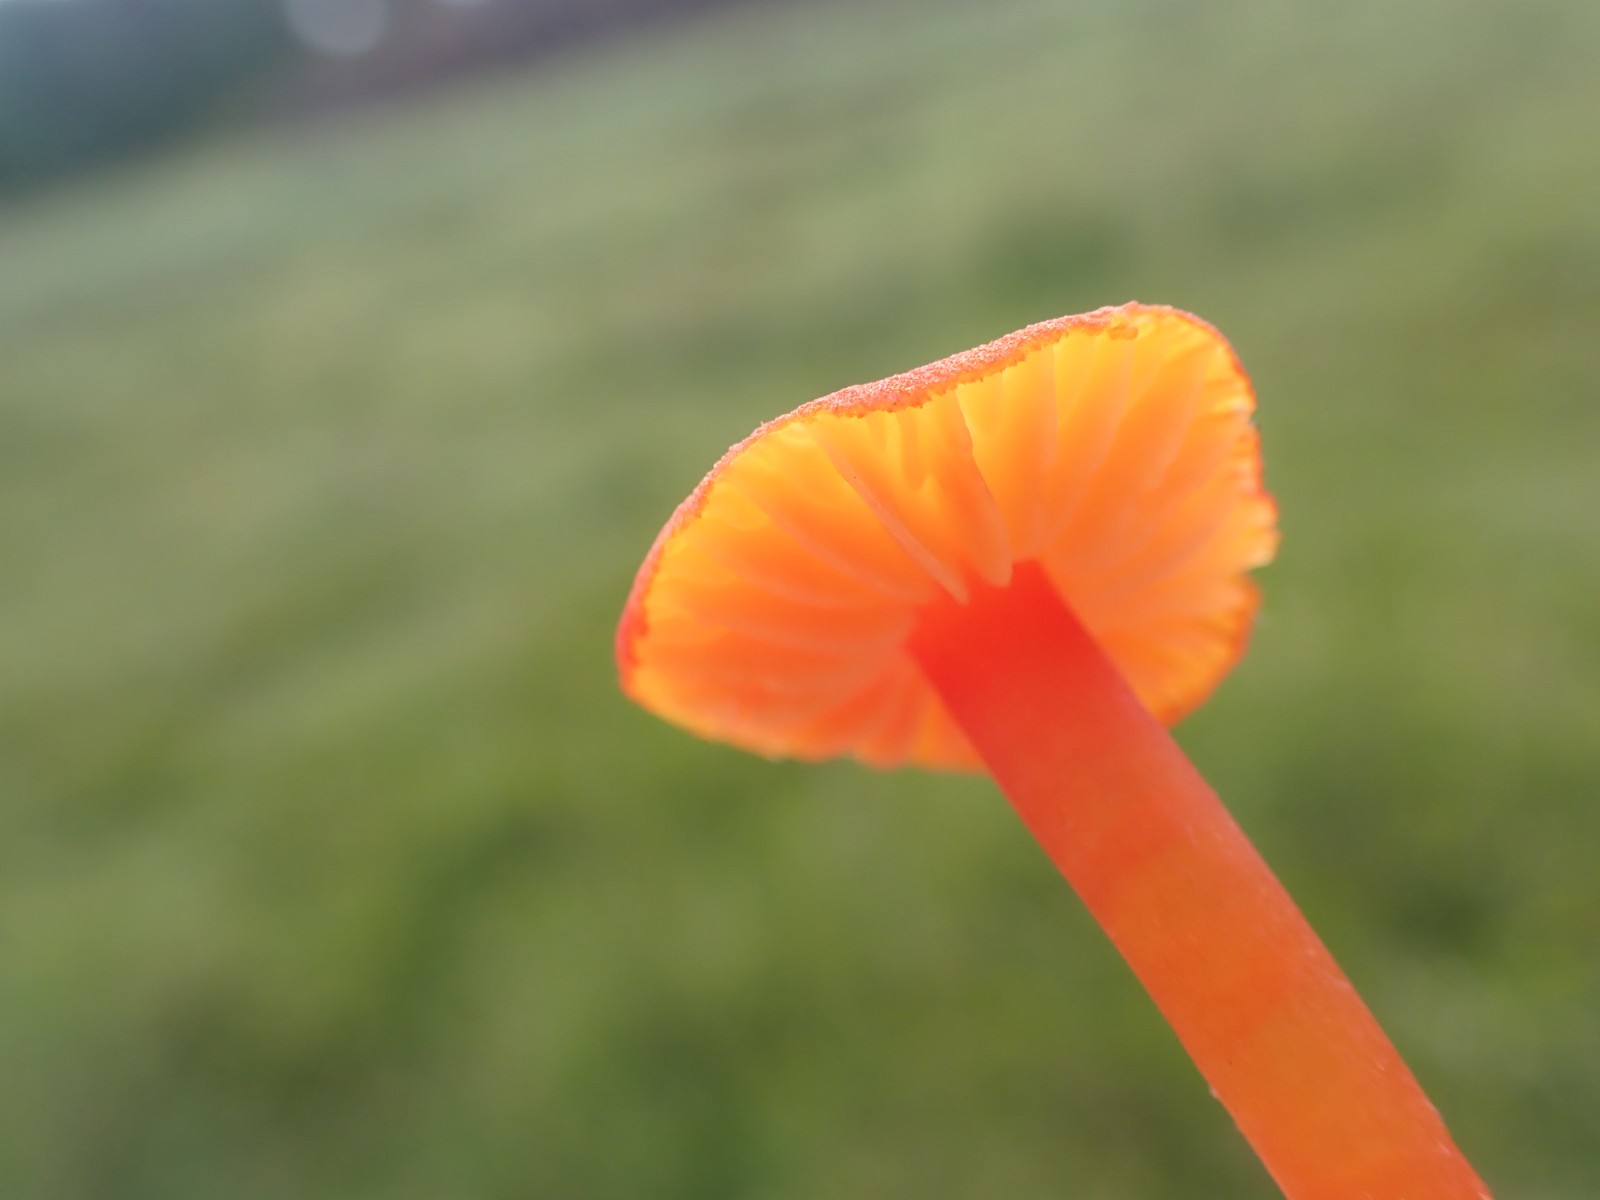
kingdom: Fungi
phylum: Basidiomycota
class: Agaricomycetes
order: Agaricales
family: Hygrophoraceae
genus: Hygrocybe
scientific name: Hygrocybe miniata
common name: mønje-vokshat
